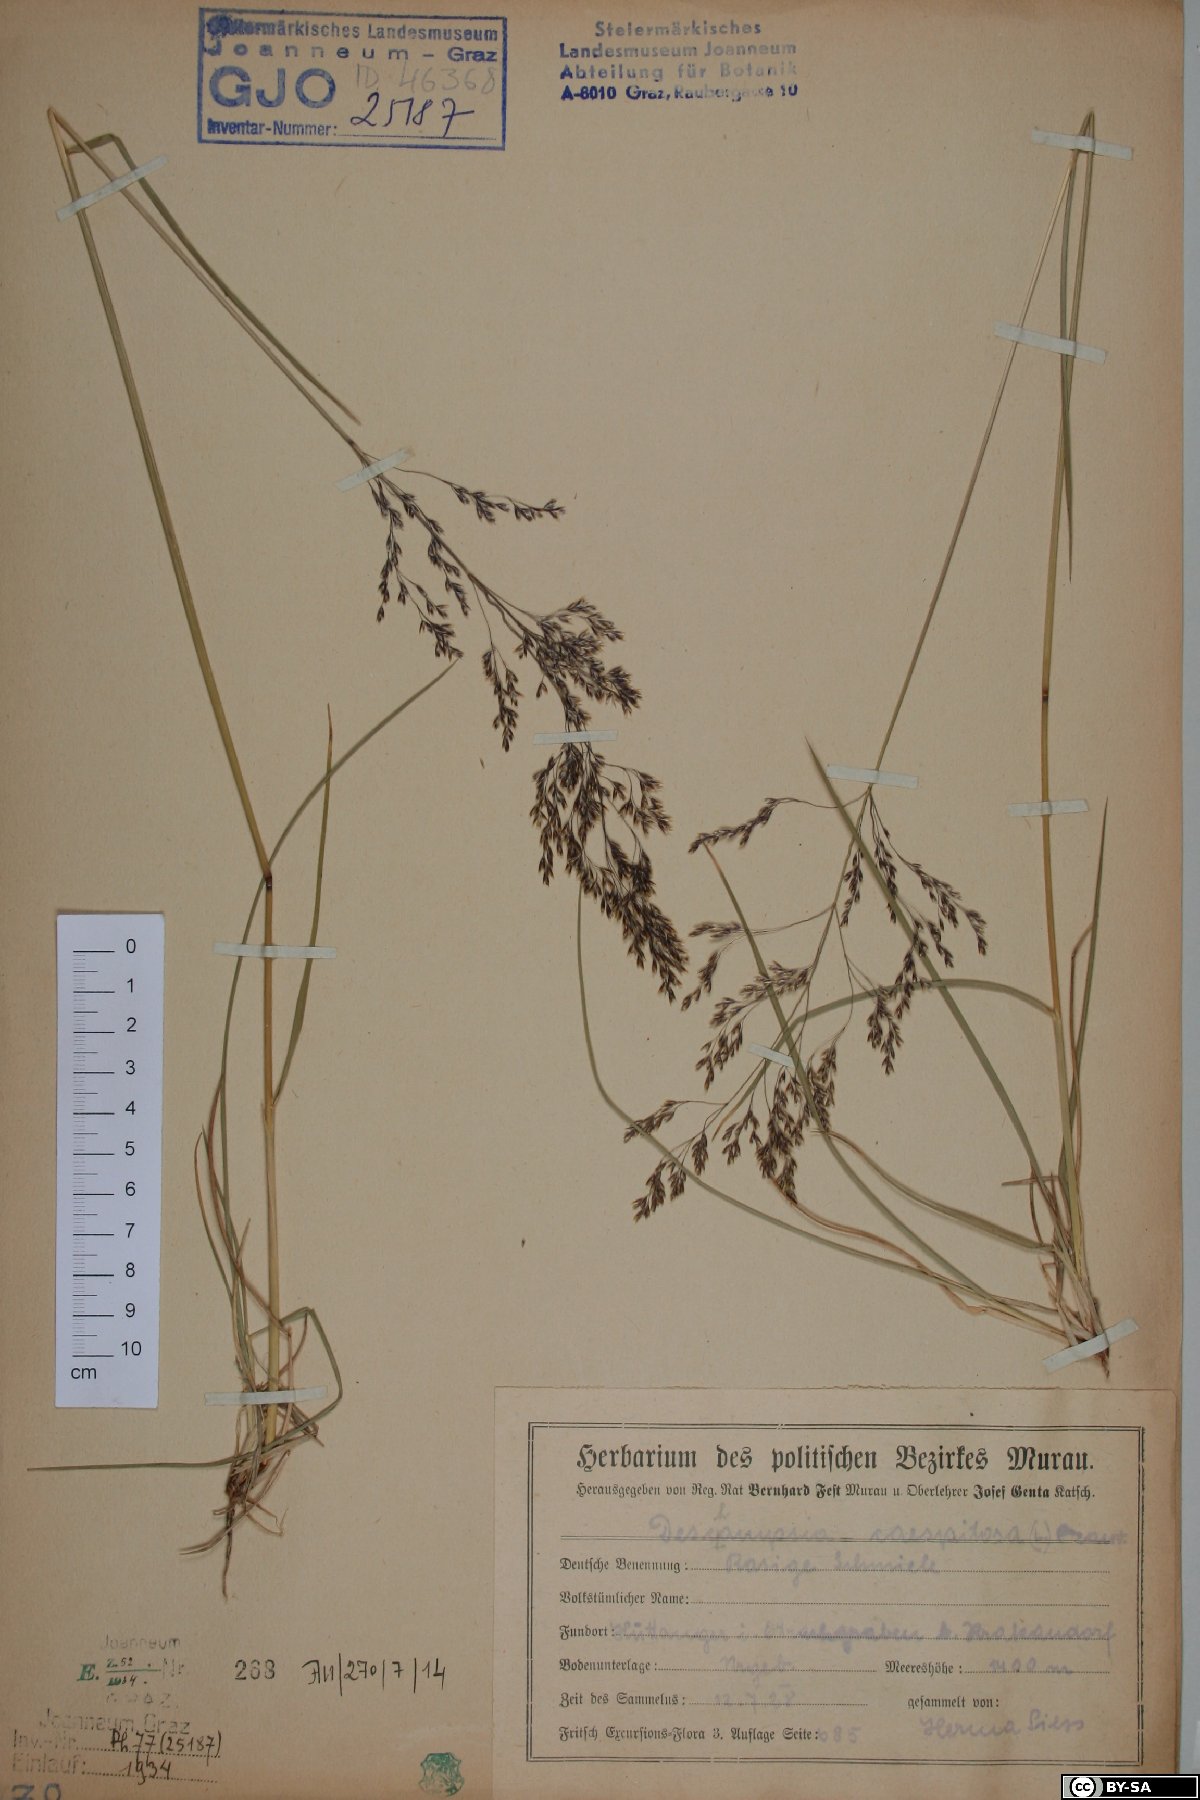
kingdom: Plantae
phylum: Tracheophyta
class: Liliopsida
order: Poales
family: Poaceae
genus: Deschampsia
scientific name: Deschampsia cespitosa
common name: Tufted hair-grass
